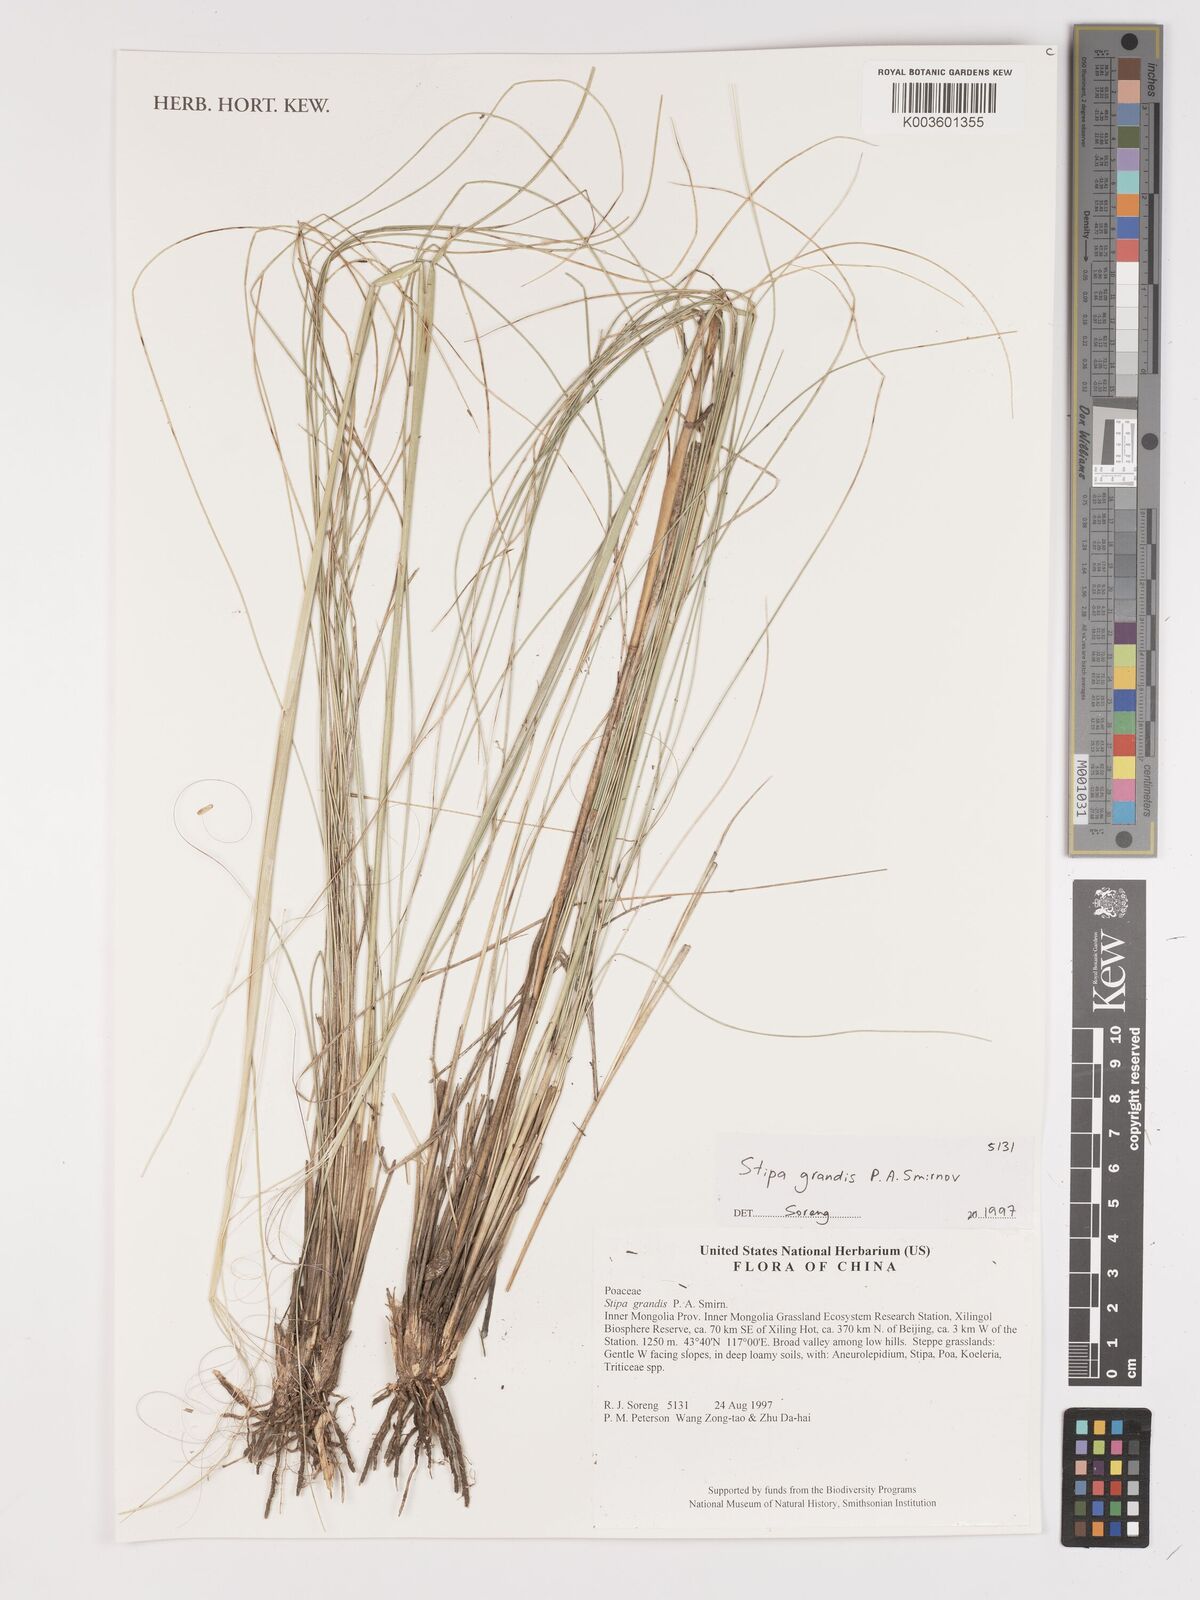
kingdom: Plantae
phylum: Tracheophyta
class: Liliopsida
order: Poales
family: Poaceae
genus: Stipa
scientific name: Stipa grandis
